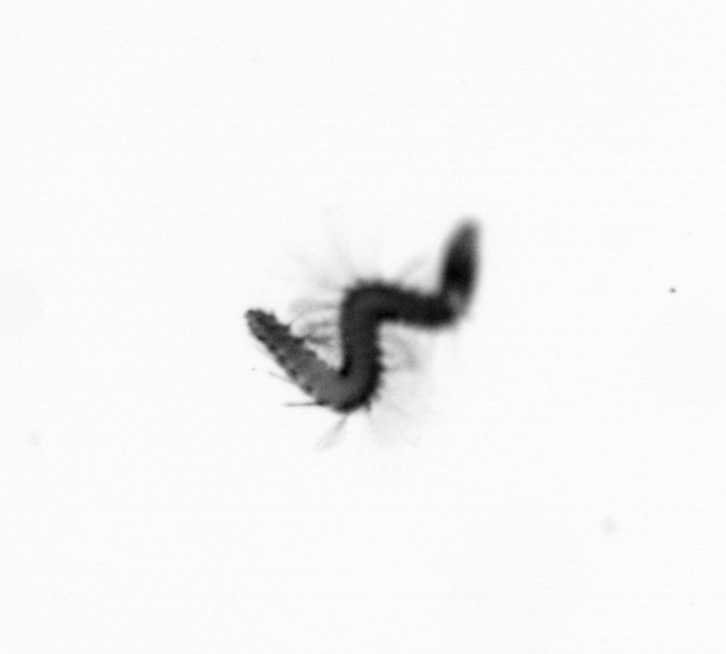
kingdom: Animalia
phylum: Annelida
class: Polychaeta
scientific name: Polychaeta
